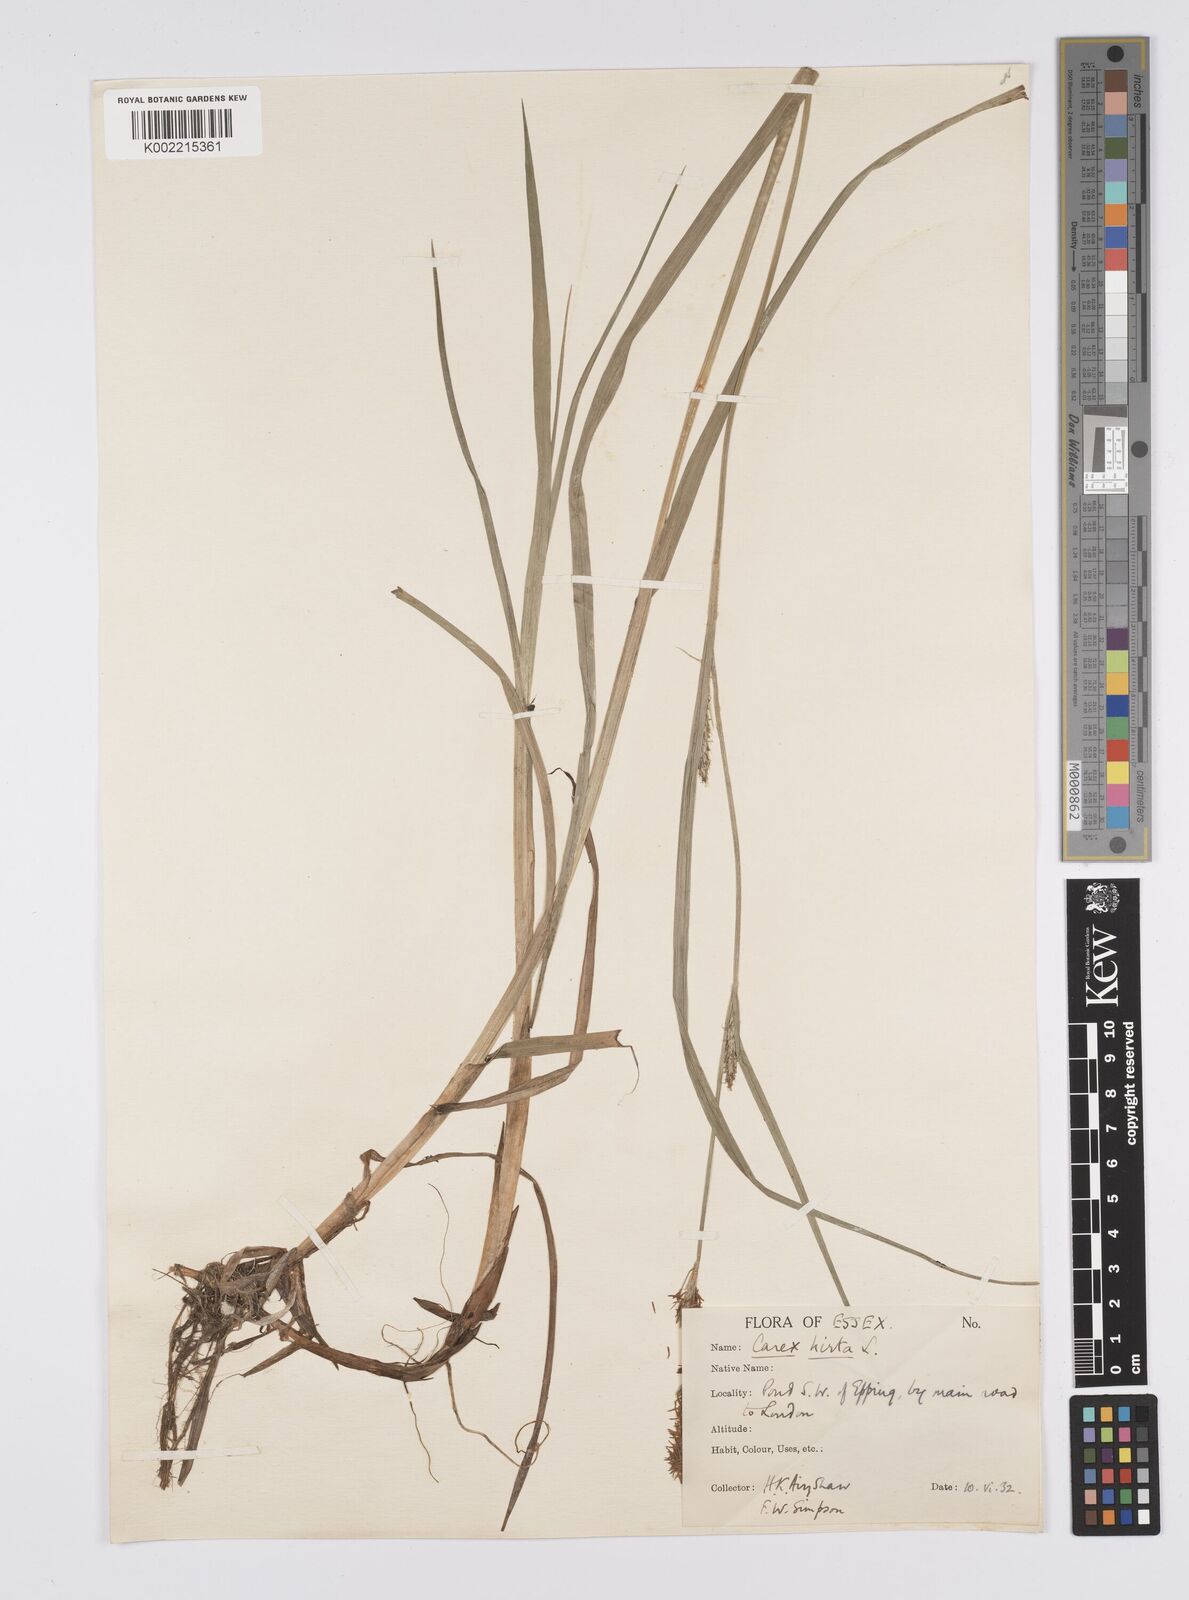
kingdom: Plantae
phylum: Tracheophyta
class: Liliopsida
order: Poales
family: Cyperaceae
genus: Carex
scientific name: Carex hirta
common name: Hairy sedge
